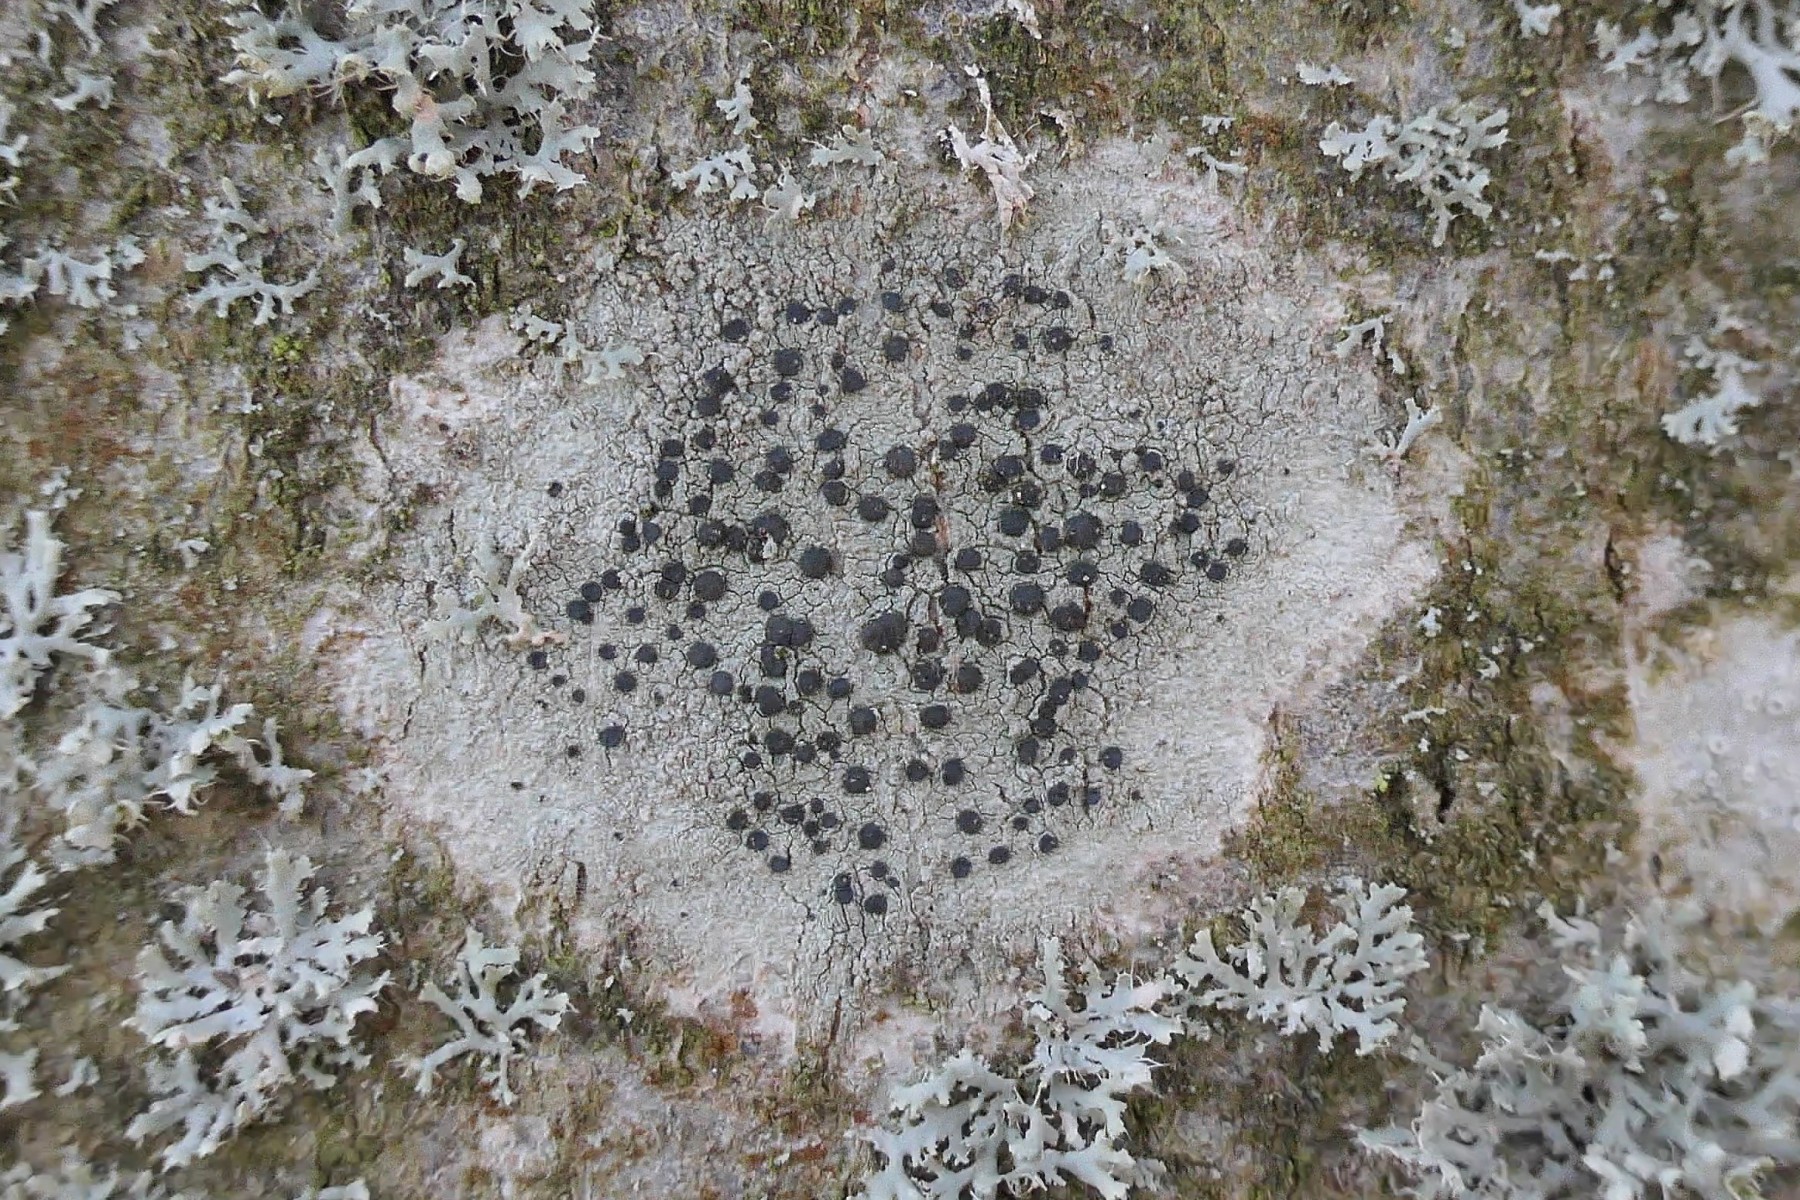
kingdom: Fungi
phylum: Ascomycota
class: Lecanoromycetes
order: Lecanorales
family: Lecanoraceae
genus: Lecidella
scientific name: Lecidella elaeochroma
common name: grågrøn skivelav
